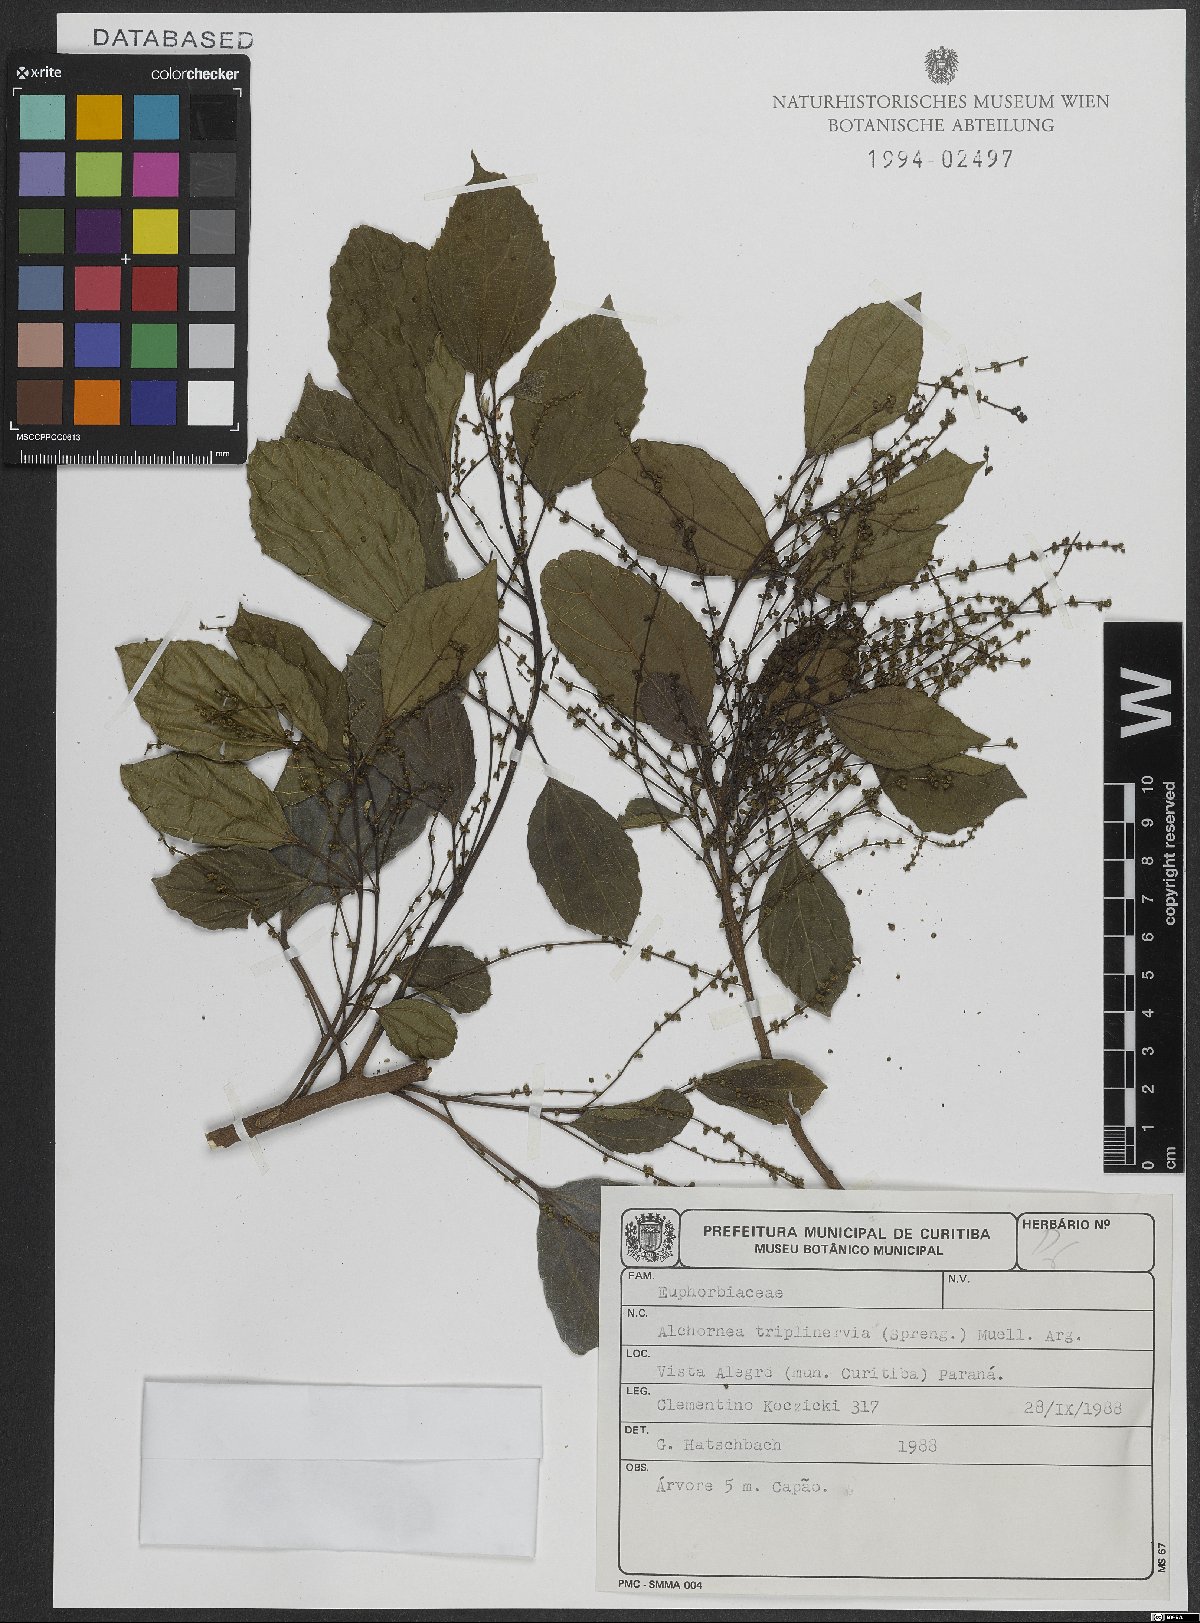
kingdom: Plantae
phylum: Tracheophyta
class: Magnoliopsida
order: Malpighiales
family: Euphorbiaceae
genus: Alchornea
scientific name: Alchornea triplinervia
